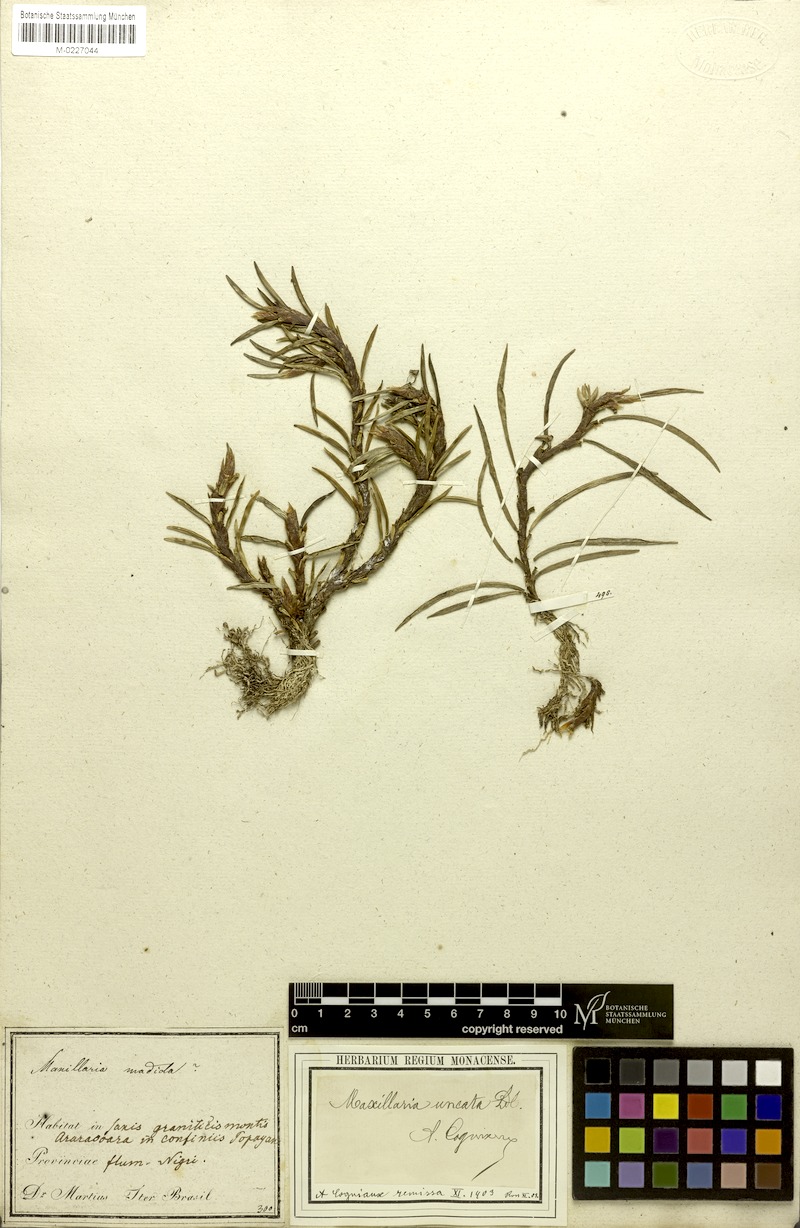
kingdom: Plantae
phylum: Tracheophyta
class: Liliopsida
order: Asparagales
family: Orchidaceae
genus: Maxillaria
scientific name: Maxillaria uncata
